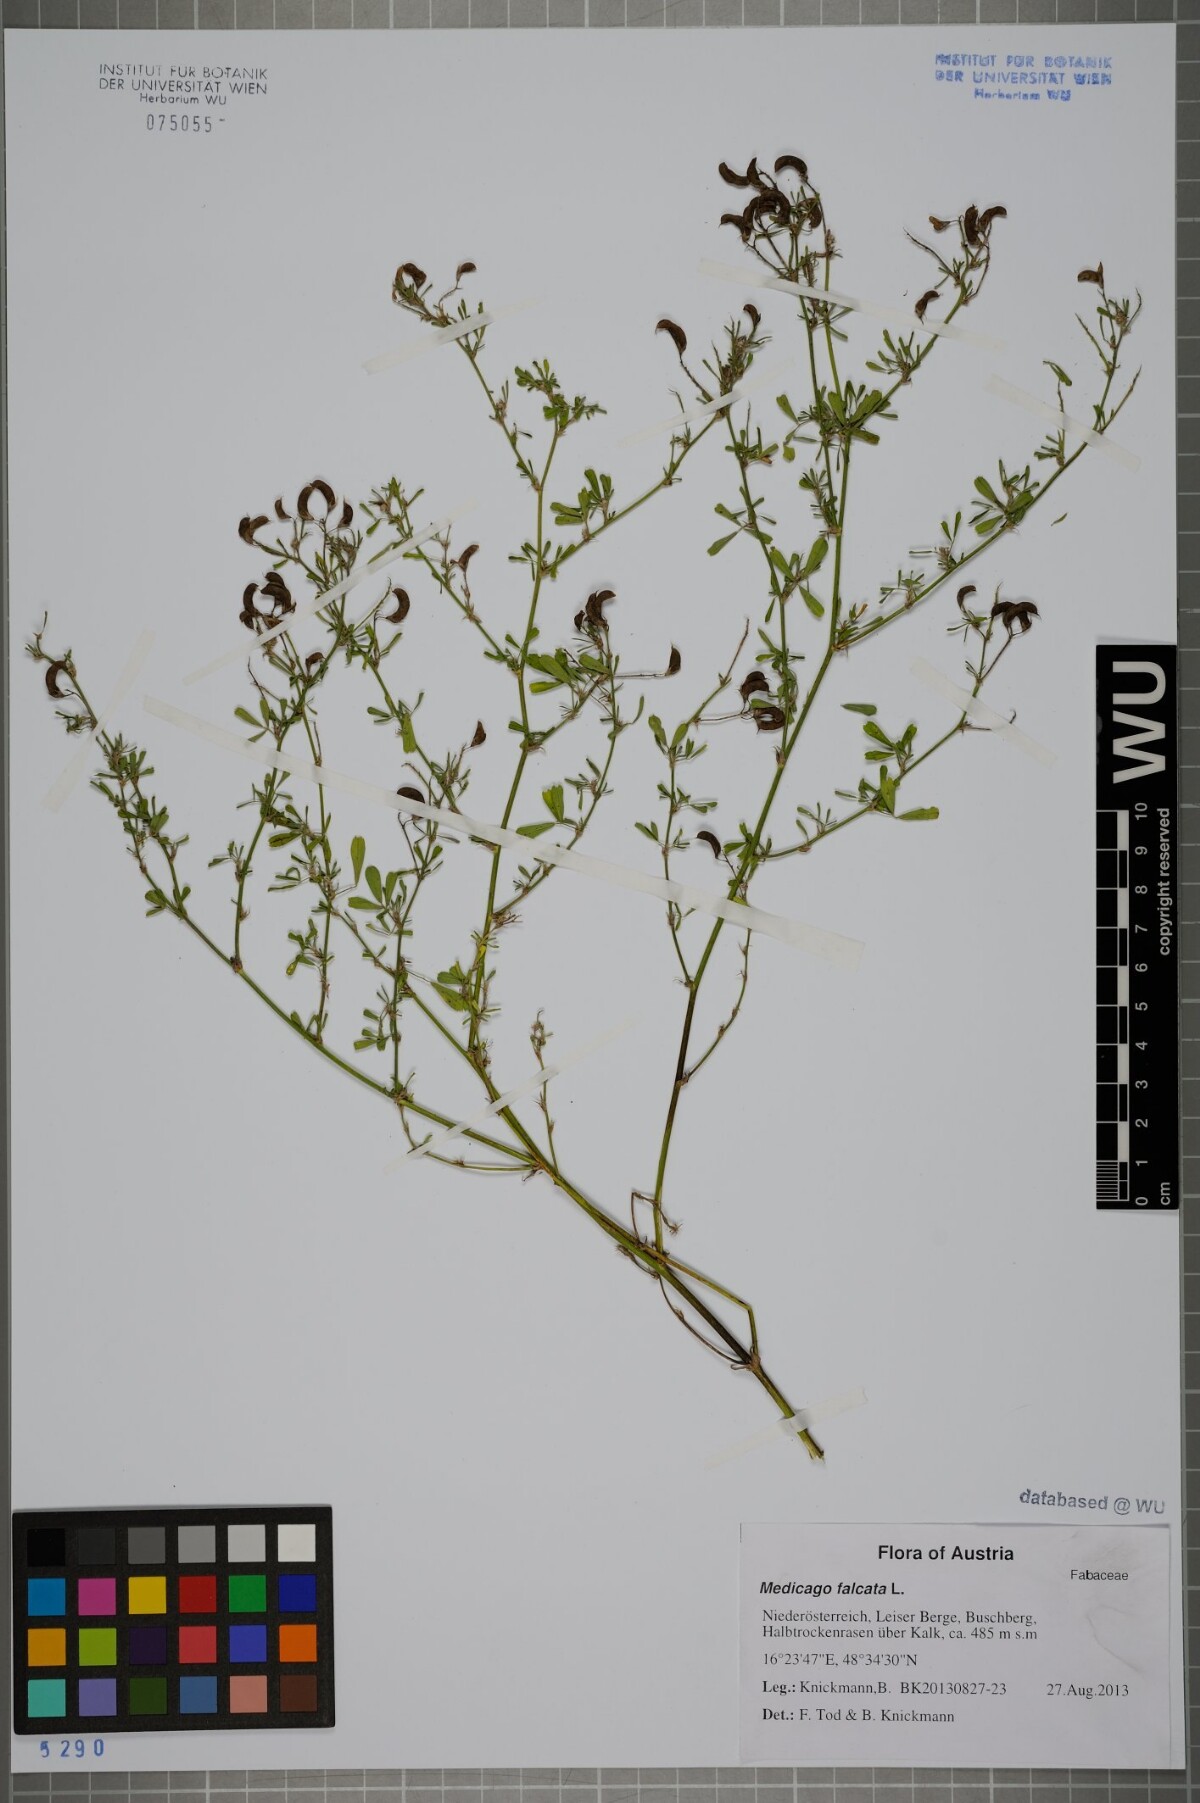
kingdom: Plantae
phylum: Tracheophyta
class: Magnoliopsida
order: Fabales
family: Fabaceae
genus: Medicago
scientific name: Medicago falcata
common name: Sickle medick
